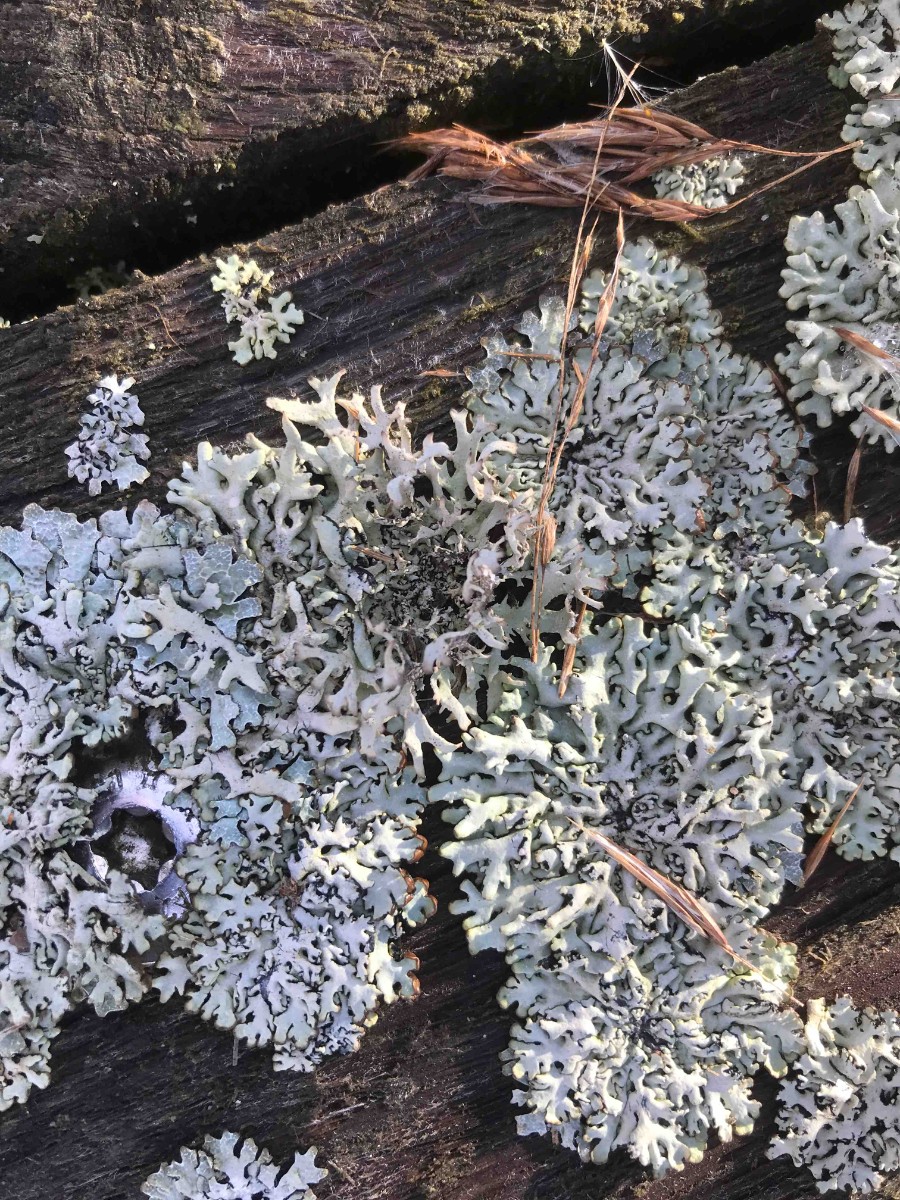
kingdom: Fungi
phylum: Ascomycota
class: Lecanoromycetes
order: Lecanorales
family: Parmeliaceae
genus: Hypogymnia
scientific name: Hypogymnia tubulosa
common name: finger-kvistlav
